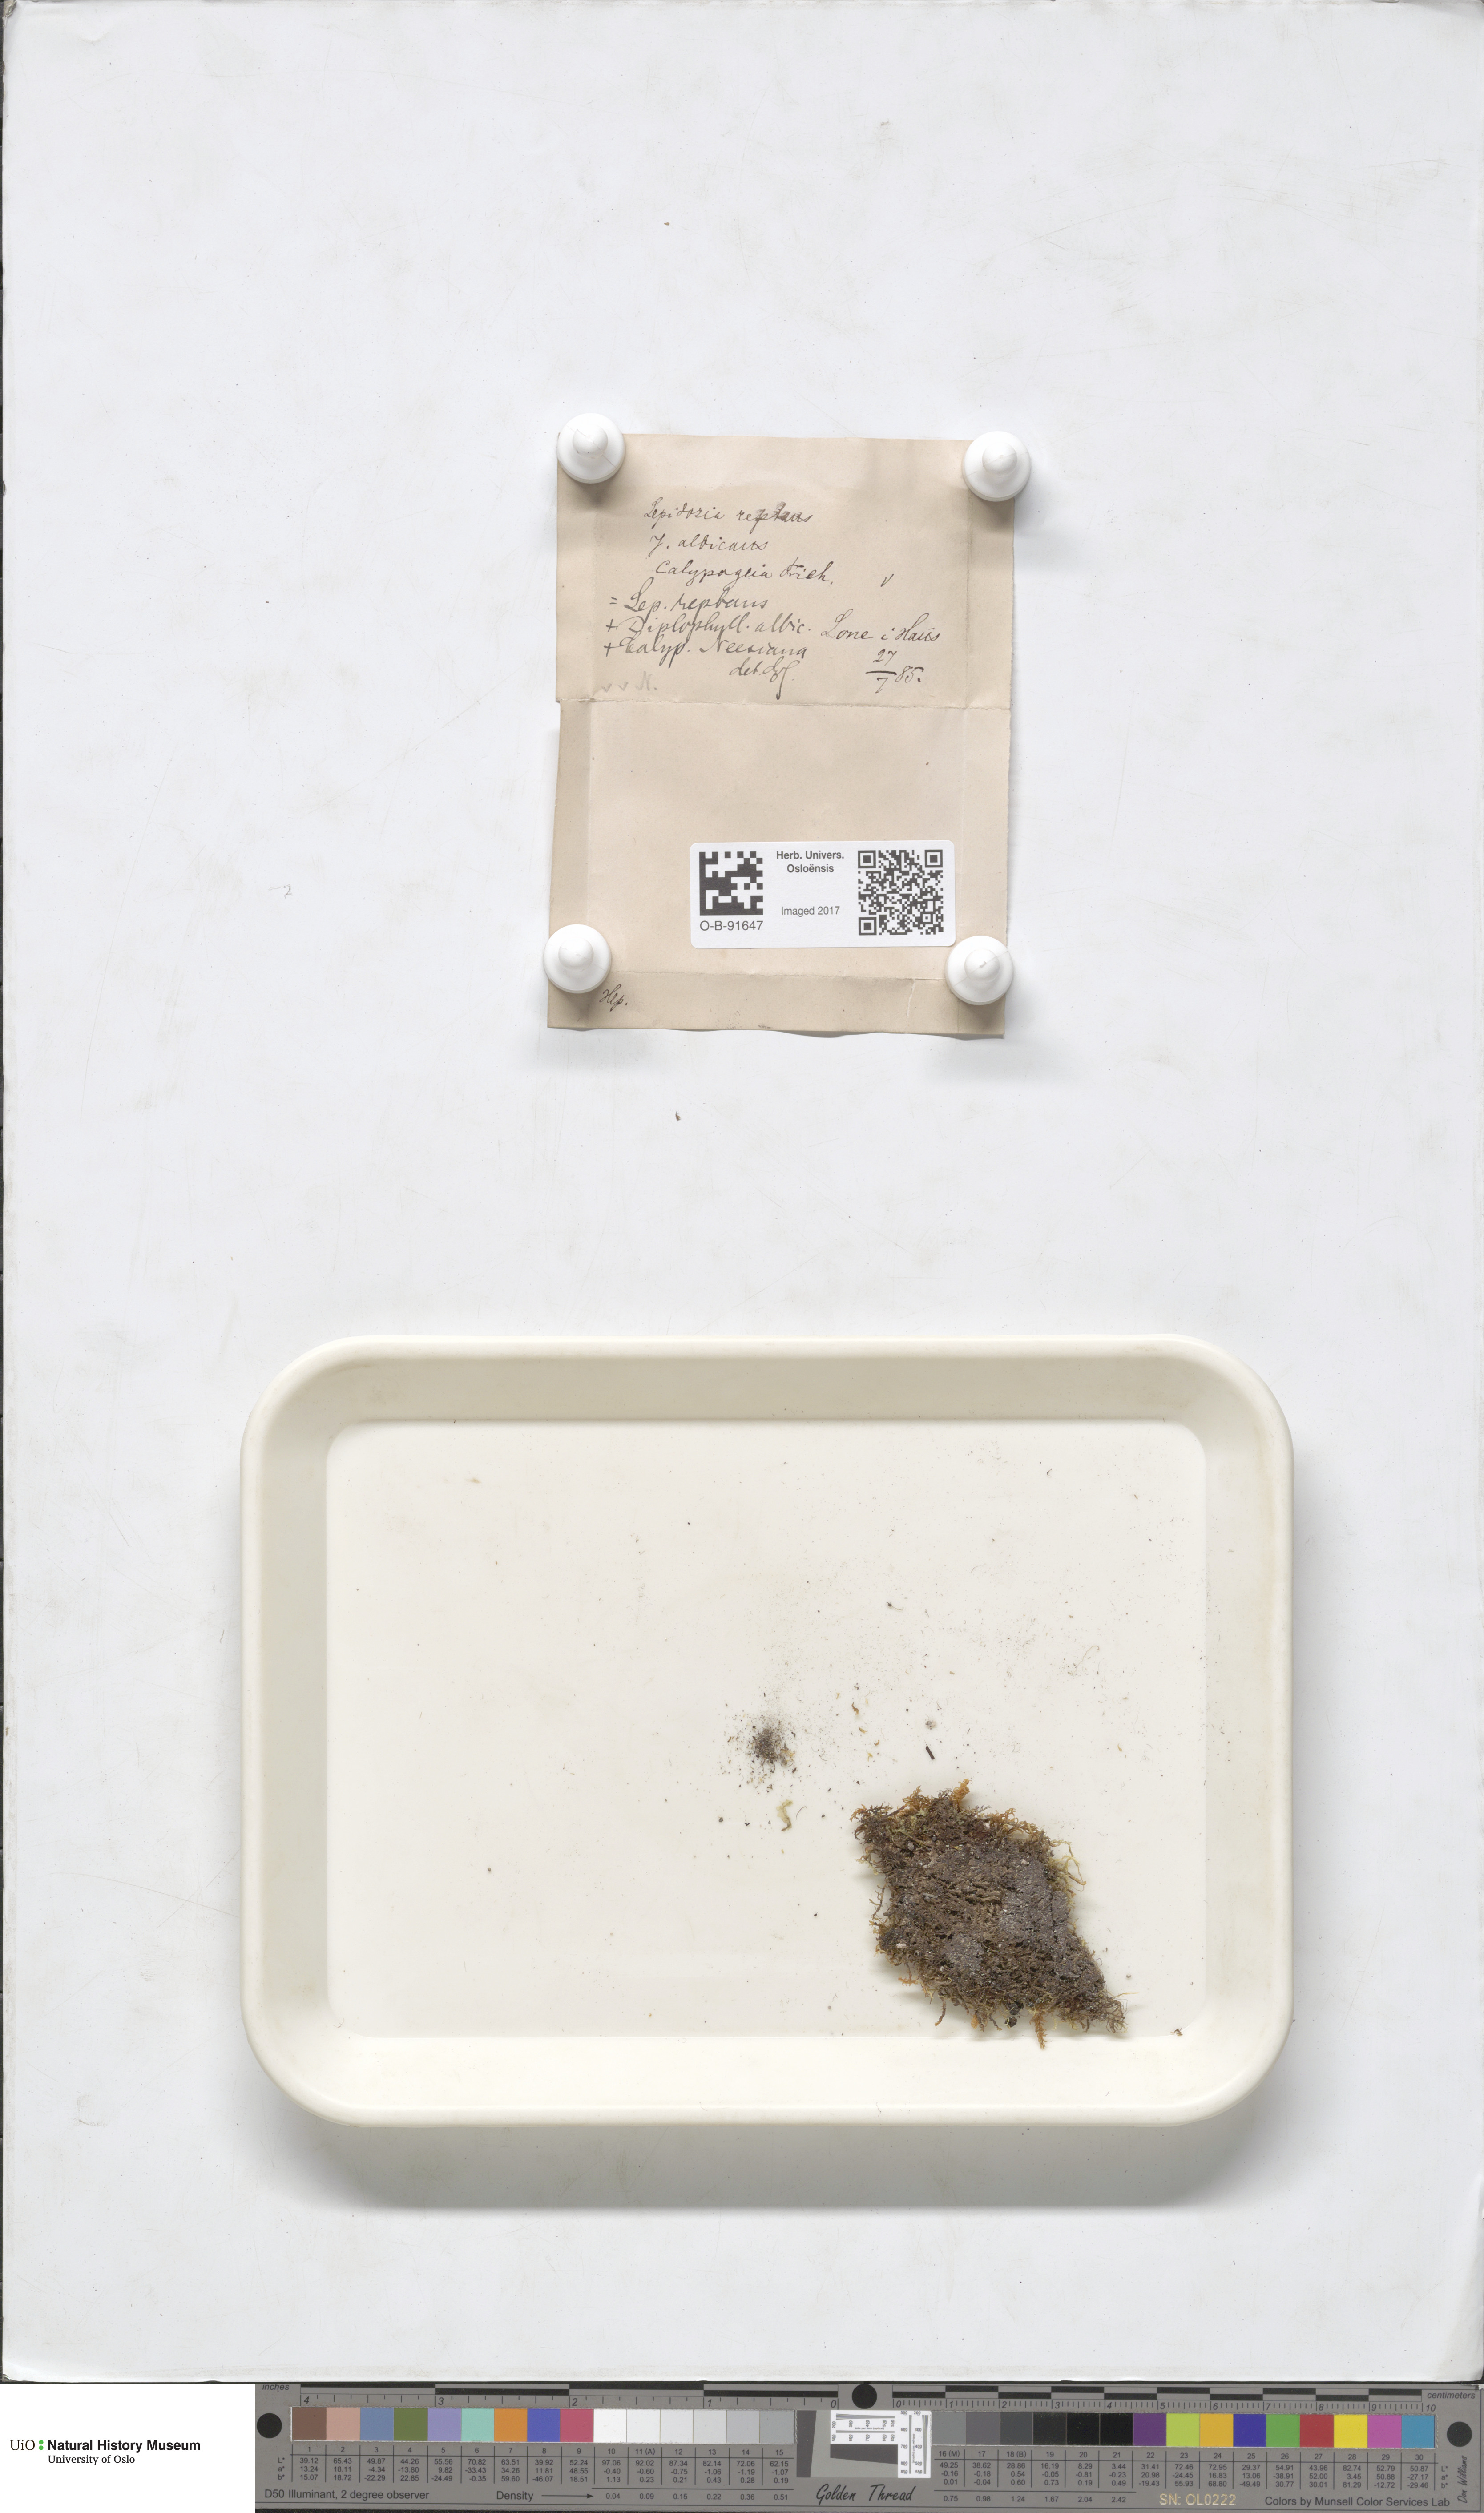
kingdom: Plantae
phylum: Marchantiophyta
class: Jungermanniopsida
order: Jungermanniales
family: Lepidoziaceae
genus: Lepidozia
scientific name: Lepidozia reptans
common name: Creeping fingerwort
